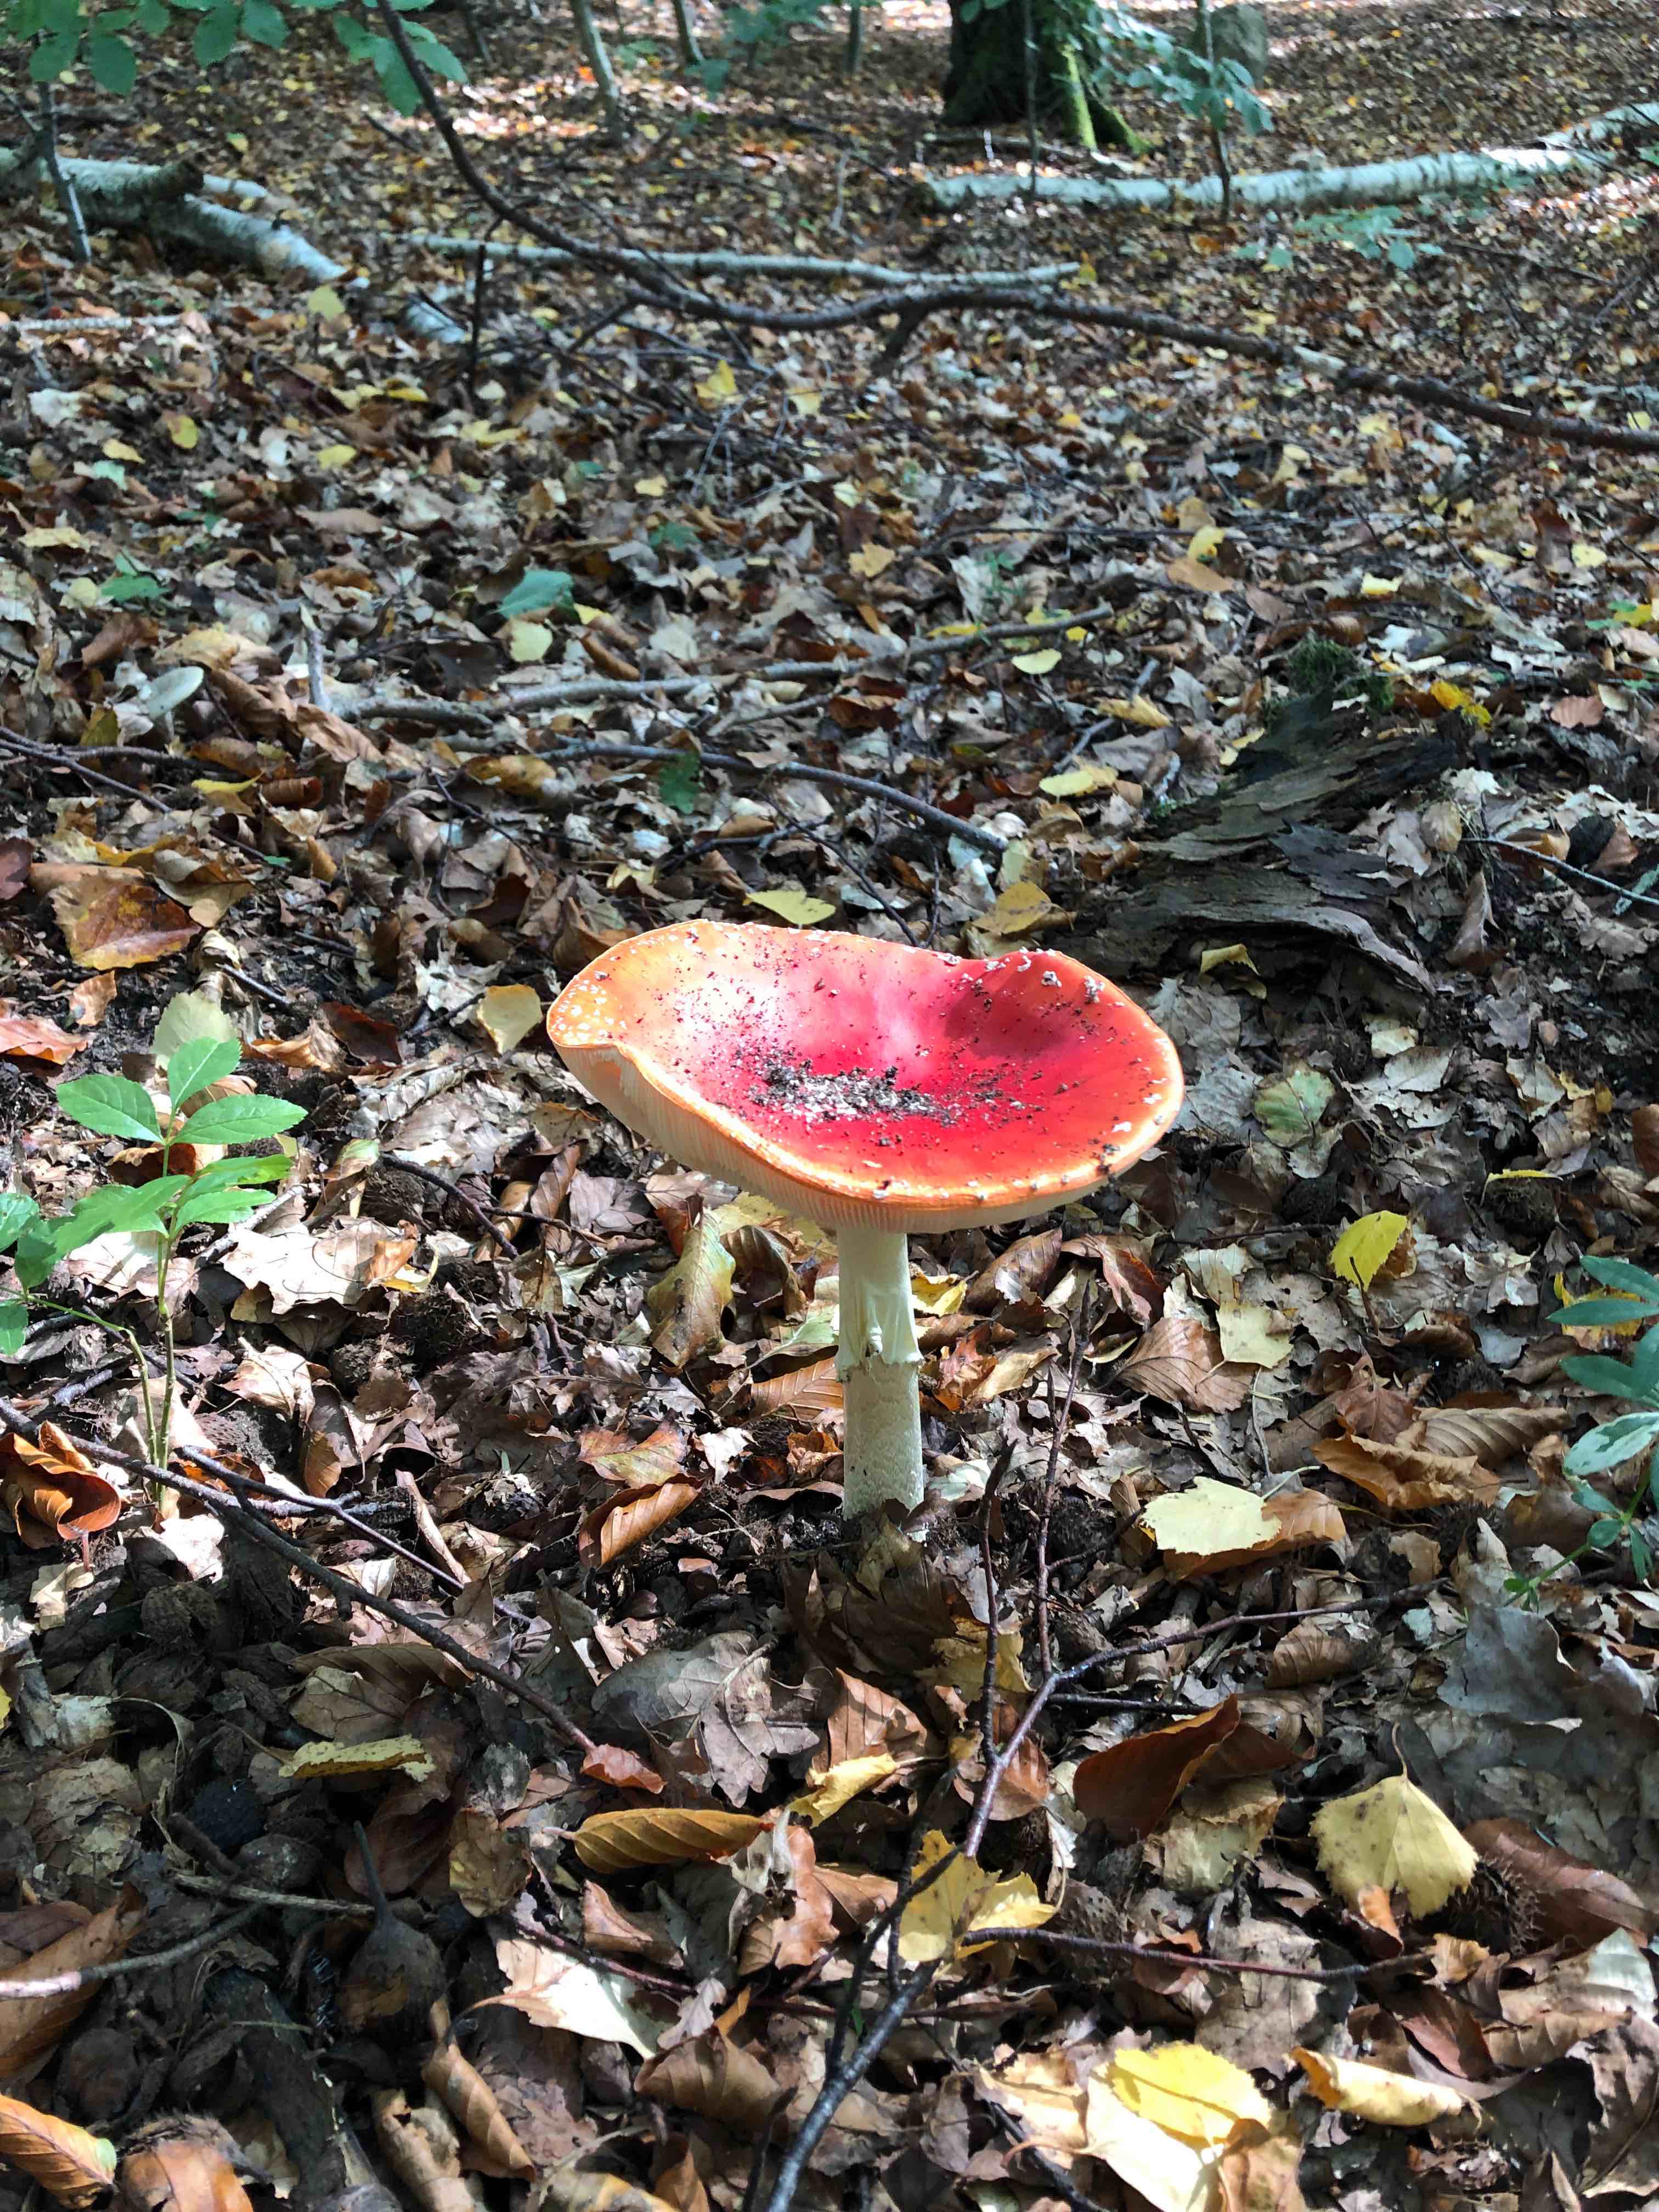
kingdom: Fungi
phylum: Basidiomycota
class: Agaricomycetes
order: Agaricales
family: Amanitaceae
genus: Amanita
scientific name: Amanita muscaria
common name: rød fluesvamp
